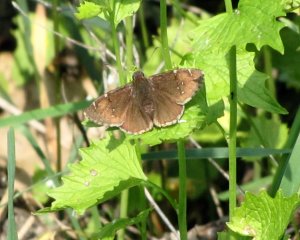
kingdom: Animalia
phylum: Arthropoda
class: Insecta
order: Lepidoptera
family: Hesperiidae
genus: Autochton
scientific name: Autochton
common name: Northern Cloudywing
